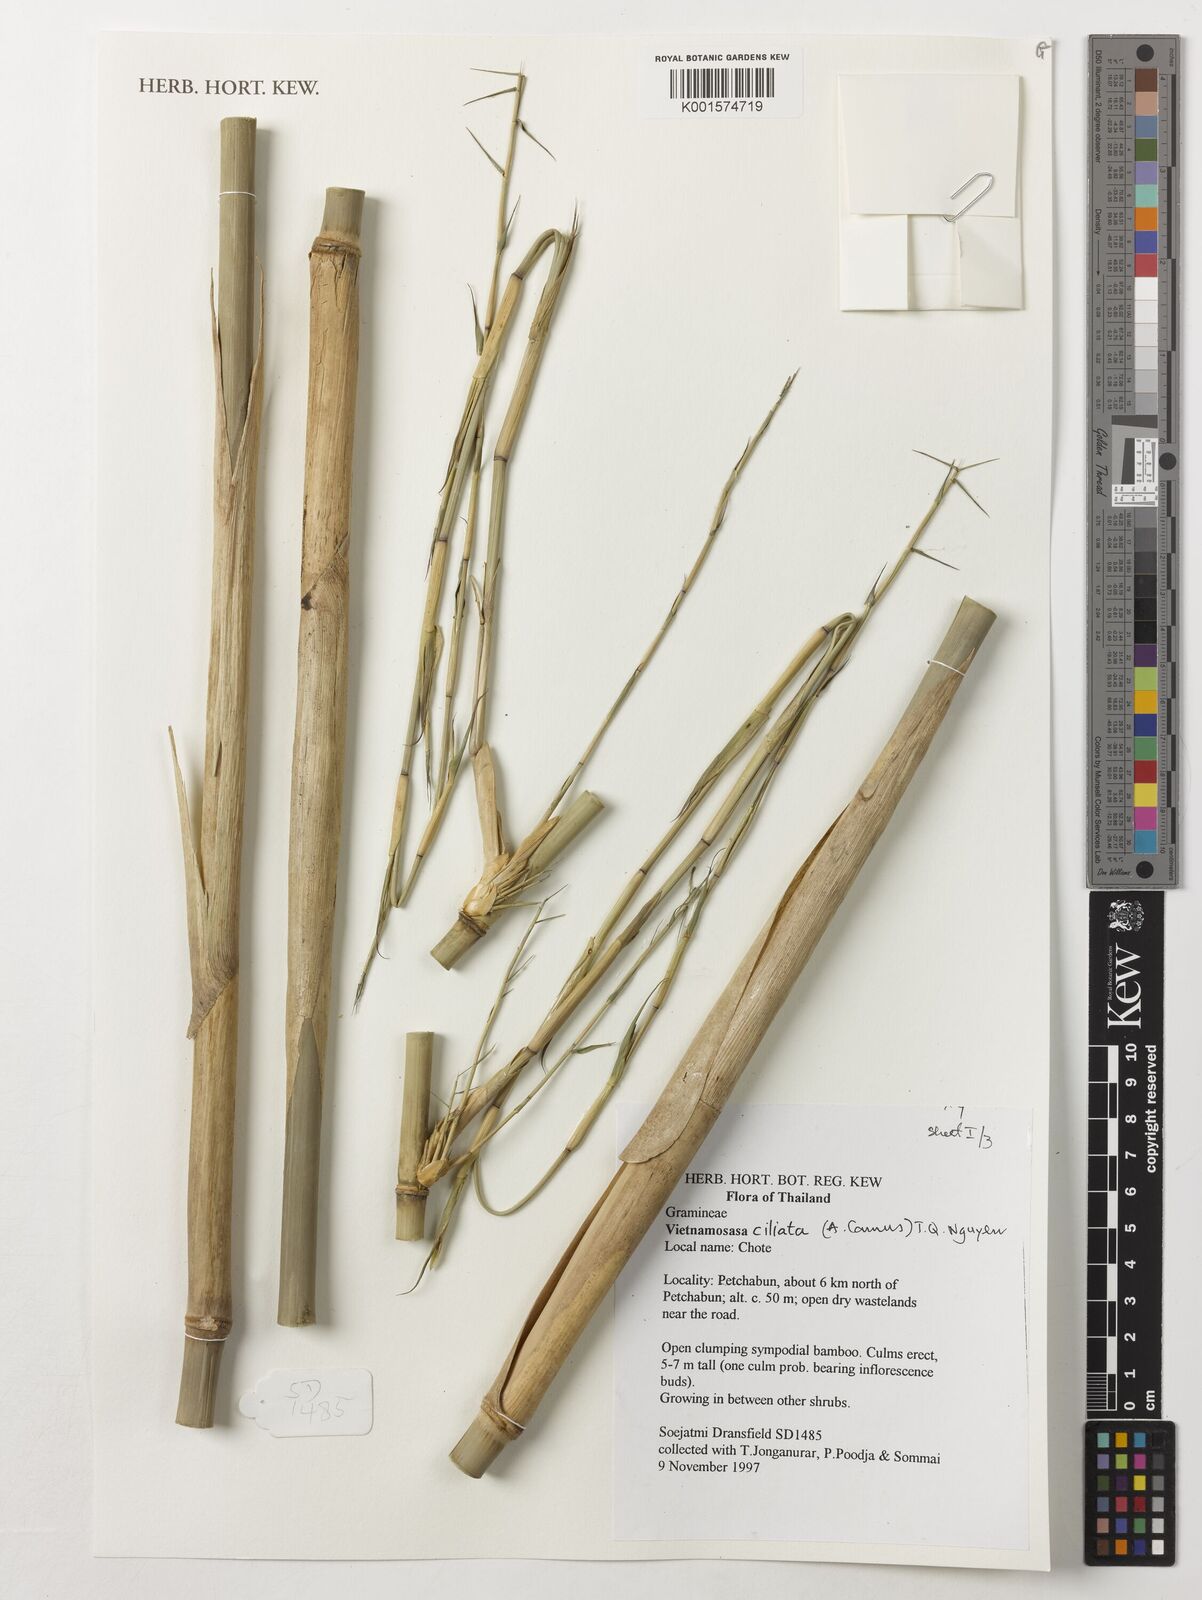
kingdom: Plantae
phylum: Tracheophyta
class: Liliopsida
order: Poales
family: Poaceae
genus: Vietnamosasa
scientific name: Vietnamosasa ciliata
